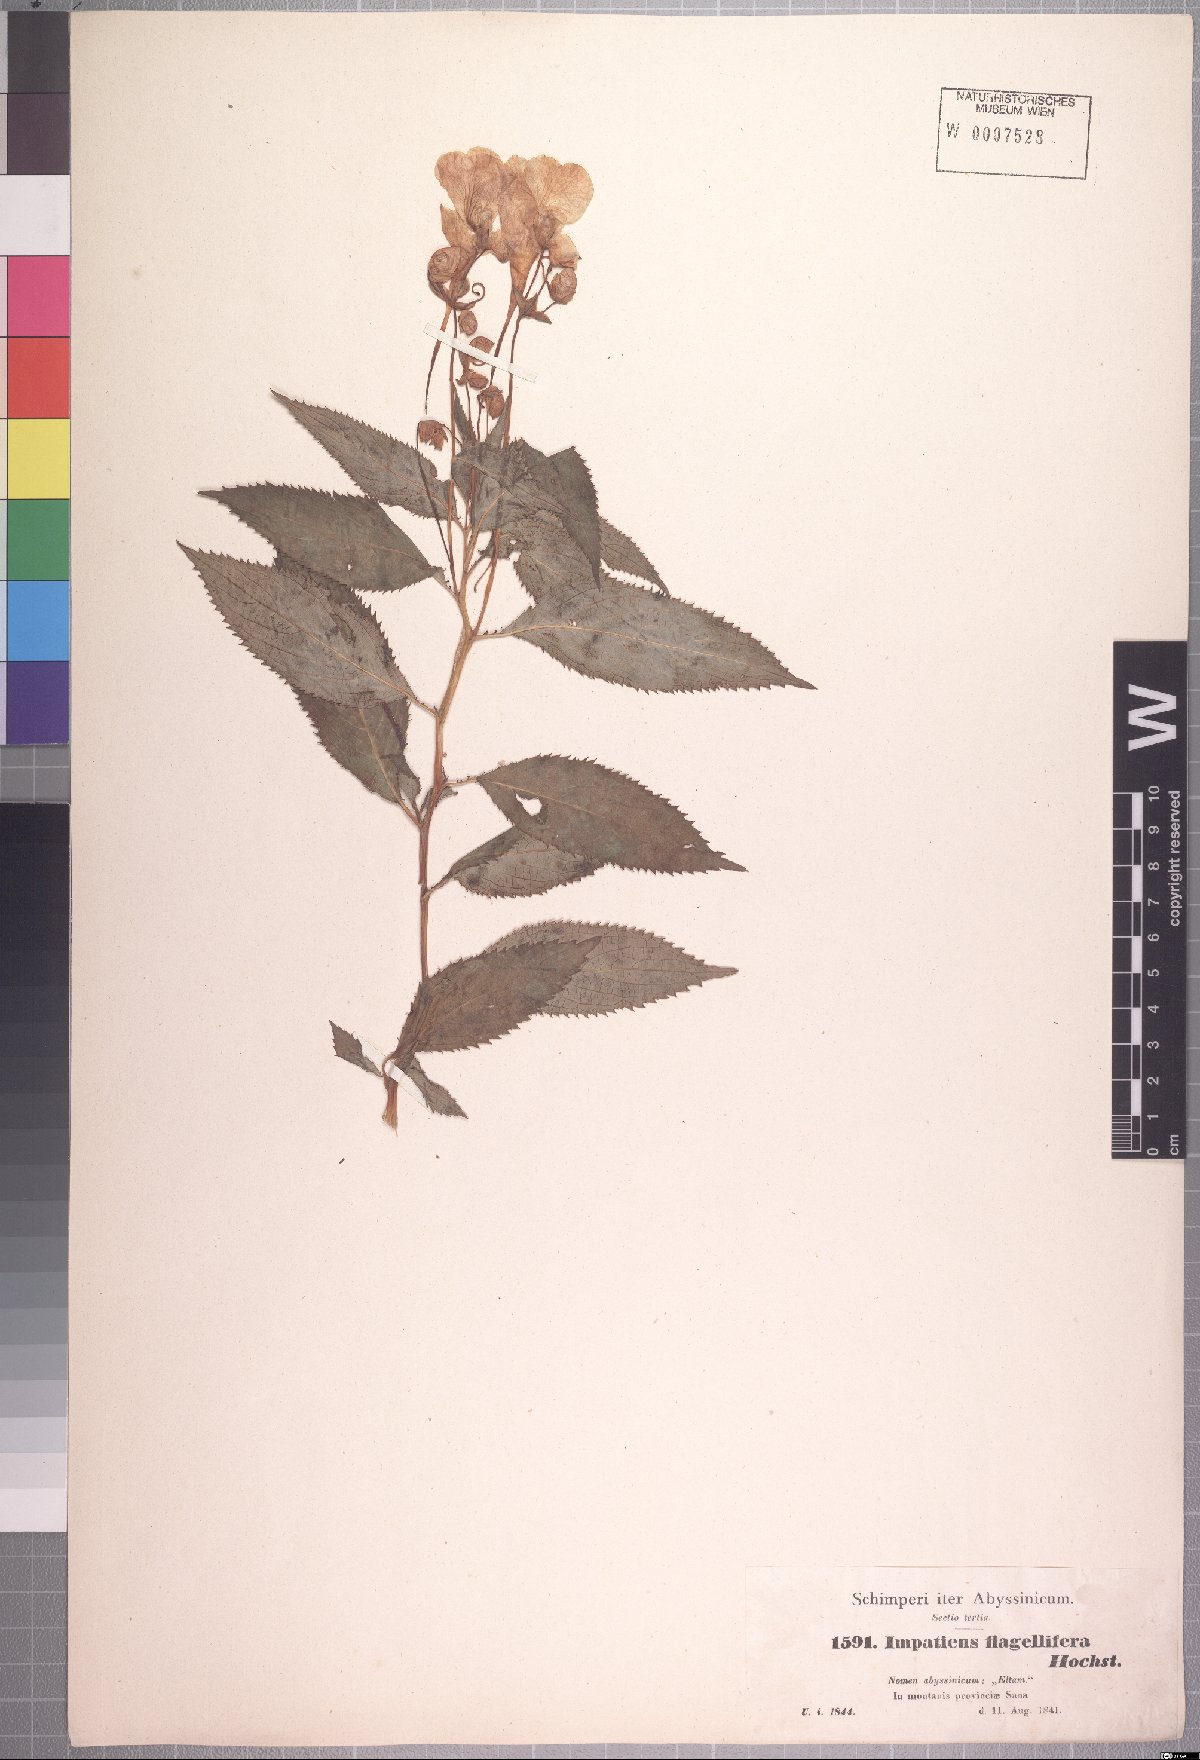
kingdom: Plantae
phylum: Tracheophyta
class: Magnoliopsida
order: Ericales
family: Balsaminaceae
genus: Impatiens
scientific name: Impatiens tinctoria
